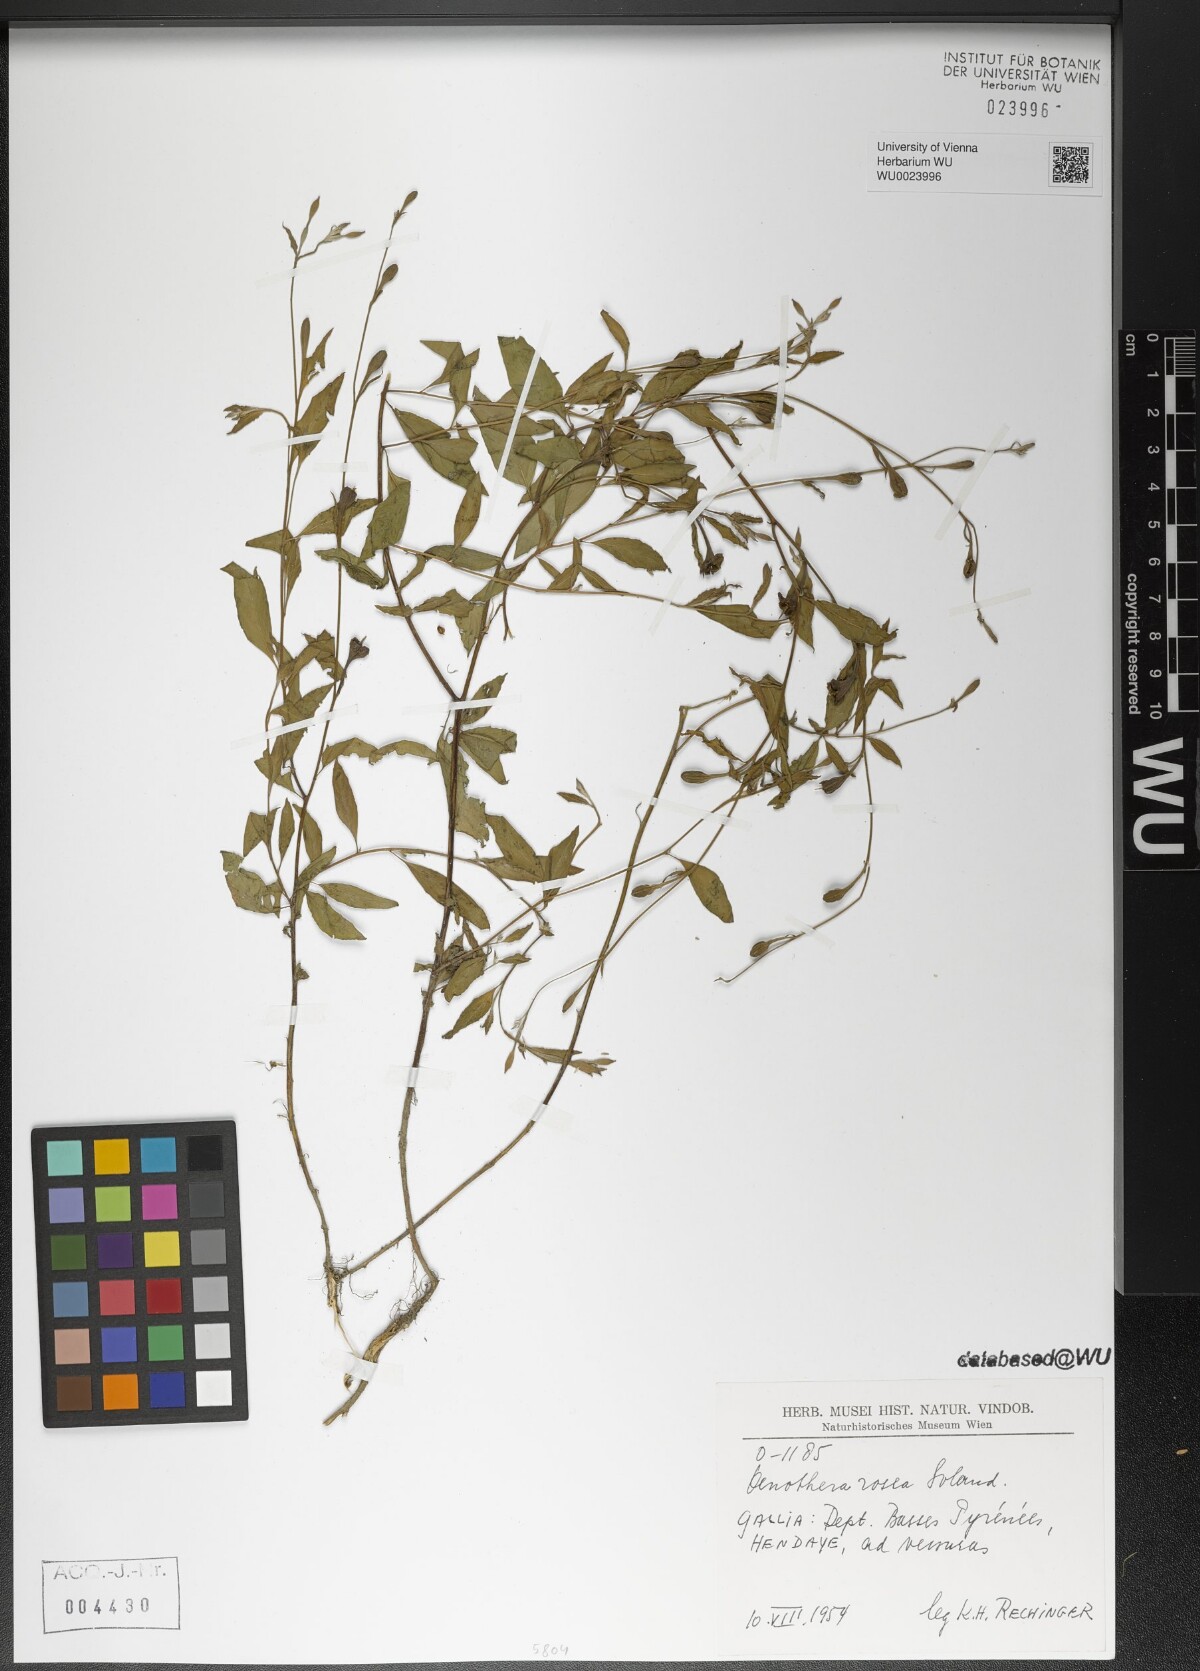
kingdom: Plantae
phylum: Tracheophyta
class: Magnoliopsida
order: Myrtales
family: Onagraceae
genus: Oenothera
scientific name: Oenothera rosea
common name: Rosy evening-primrose
